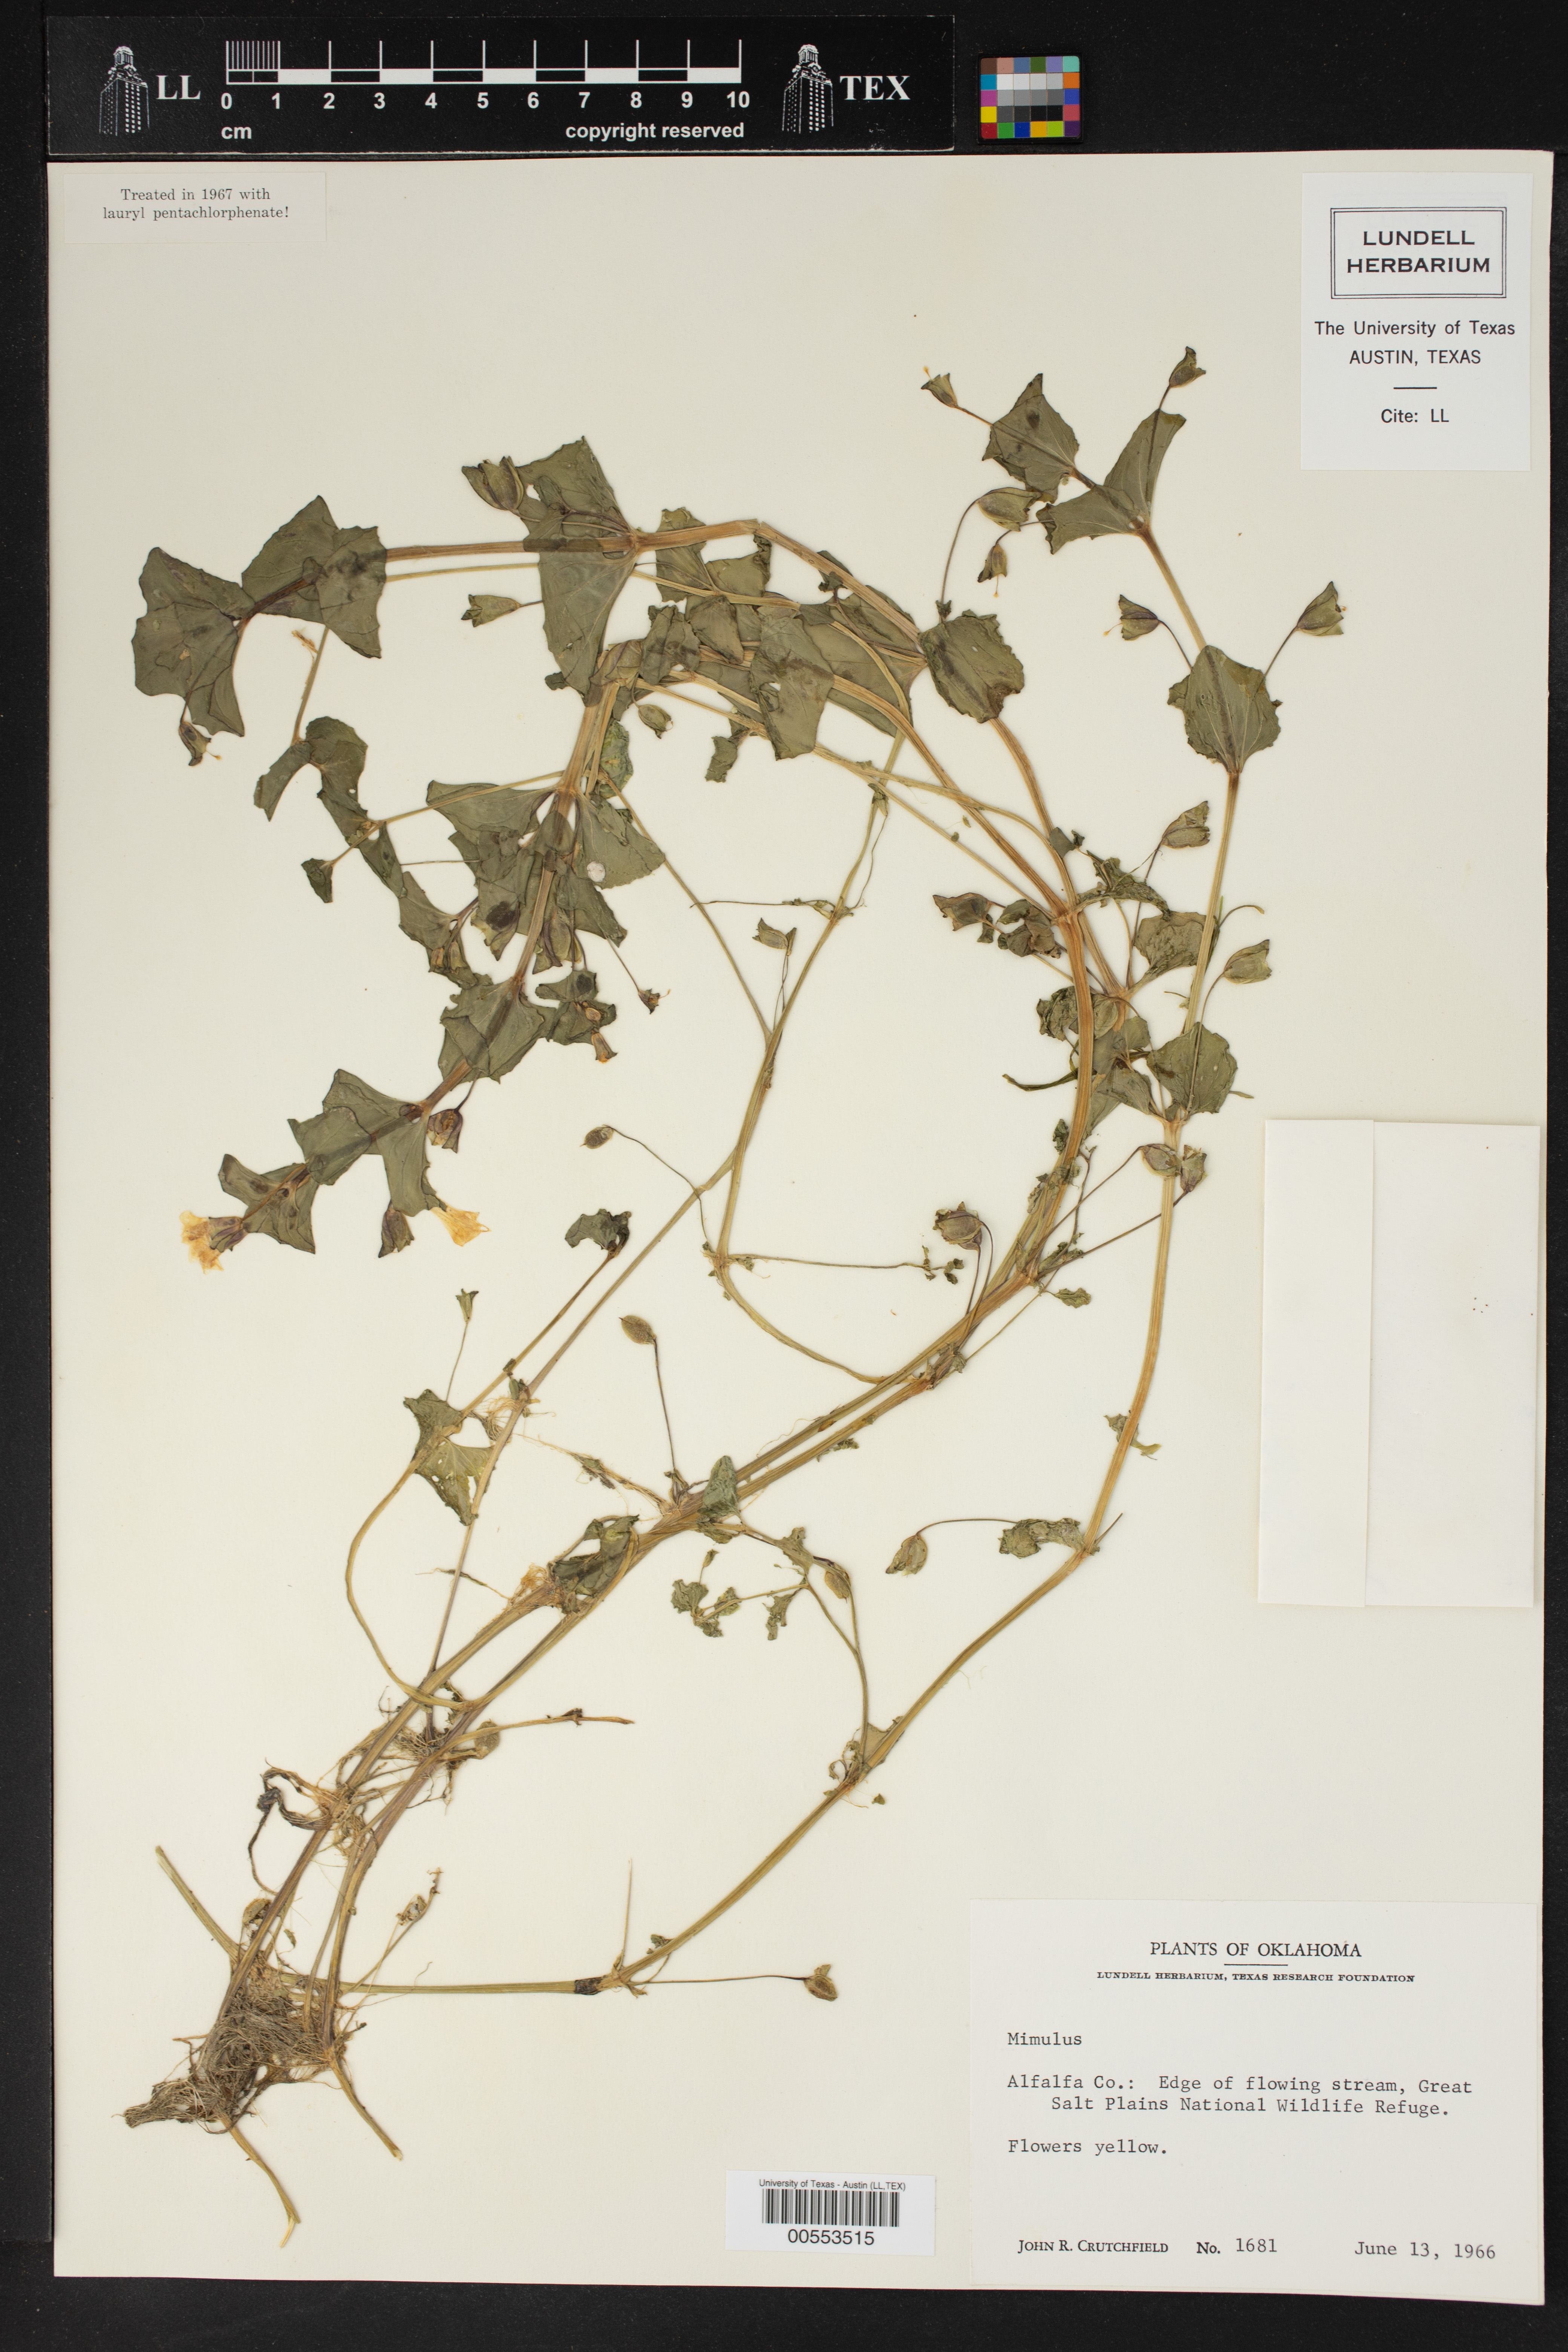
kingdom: Plantae
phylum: Tracheophyta
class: Magnoliopsida
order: Lamiales
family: Phrymaceae
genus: Mimulus
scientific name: Mimulus
